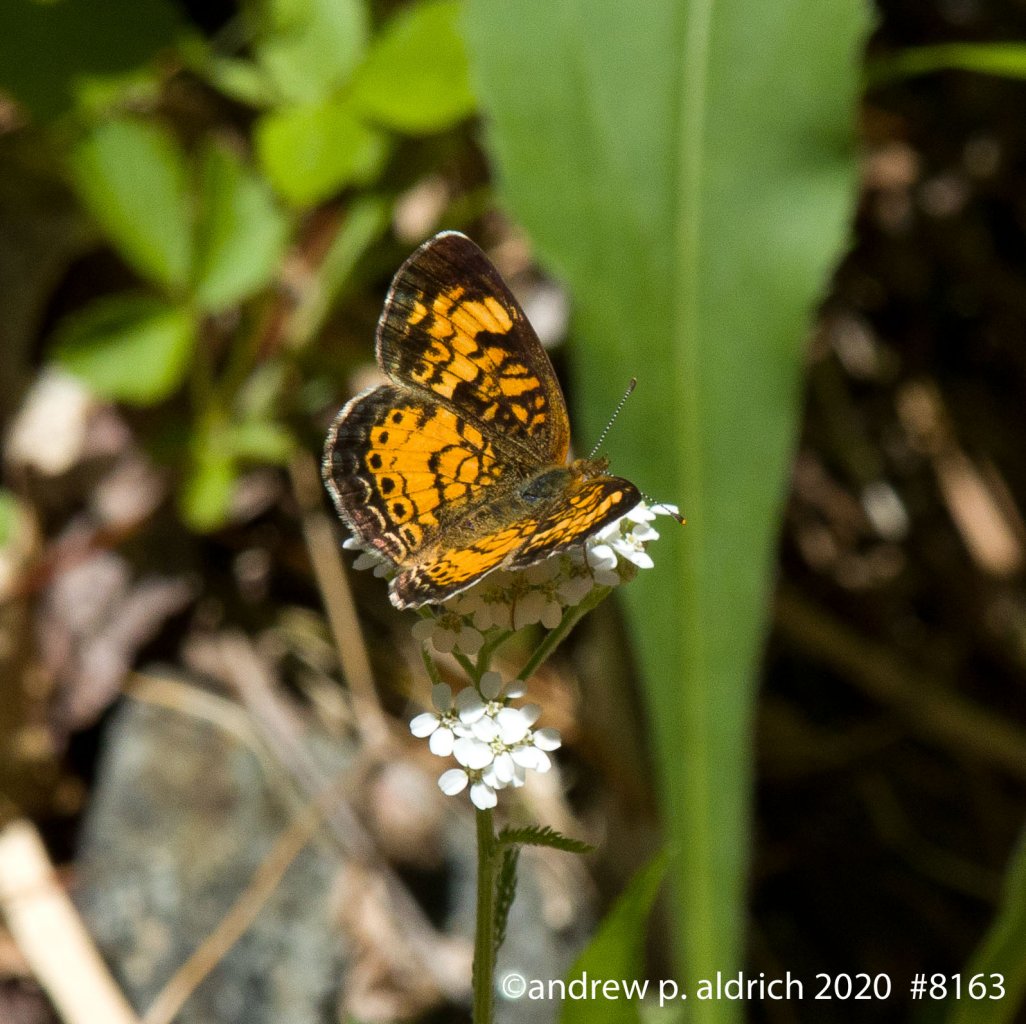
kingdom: Animalia
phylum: Arthropoda
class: Insecta
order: Lepidoptera
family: Nymphalidae
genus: Phyciodes
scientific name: Phyciodes
